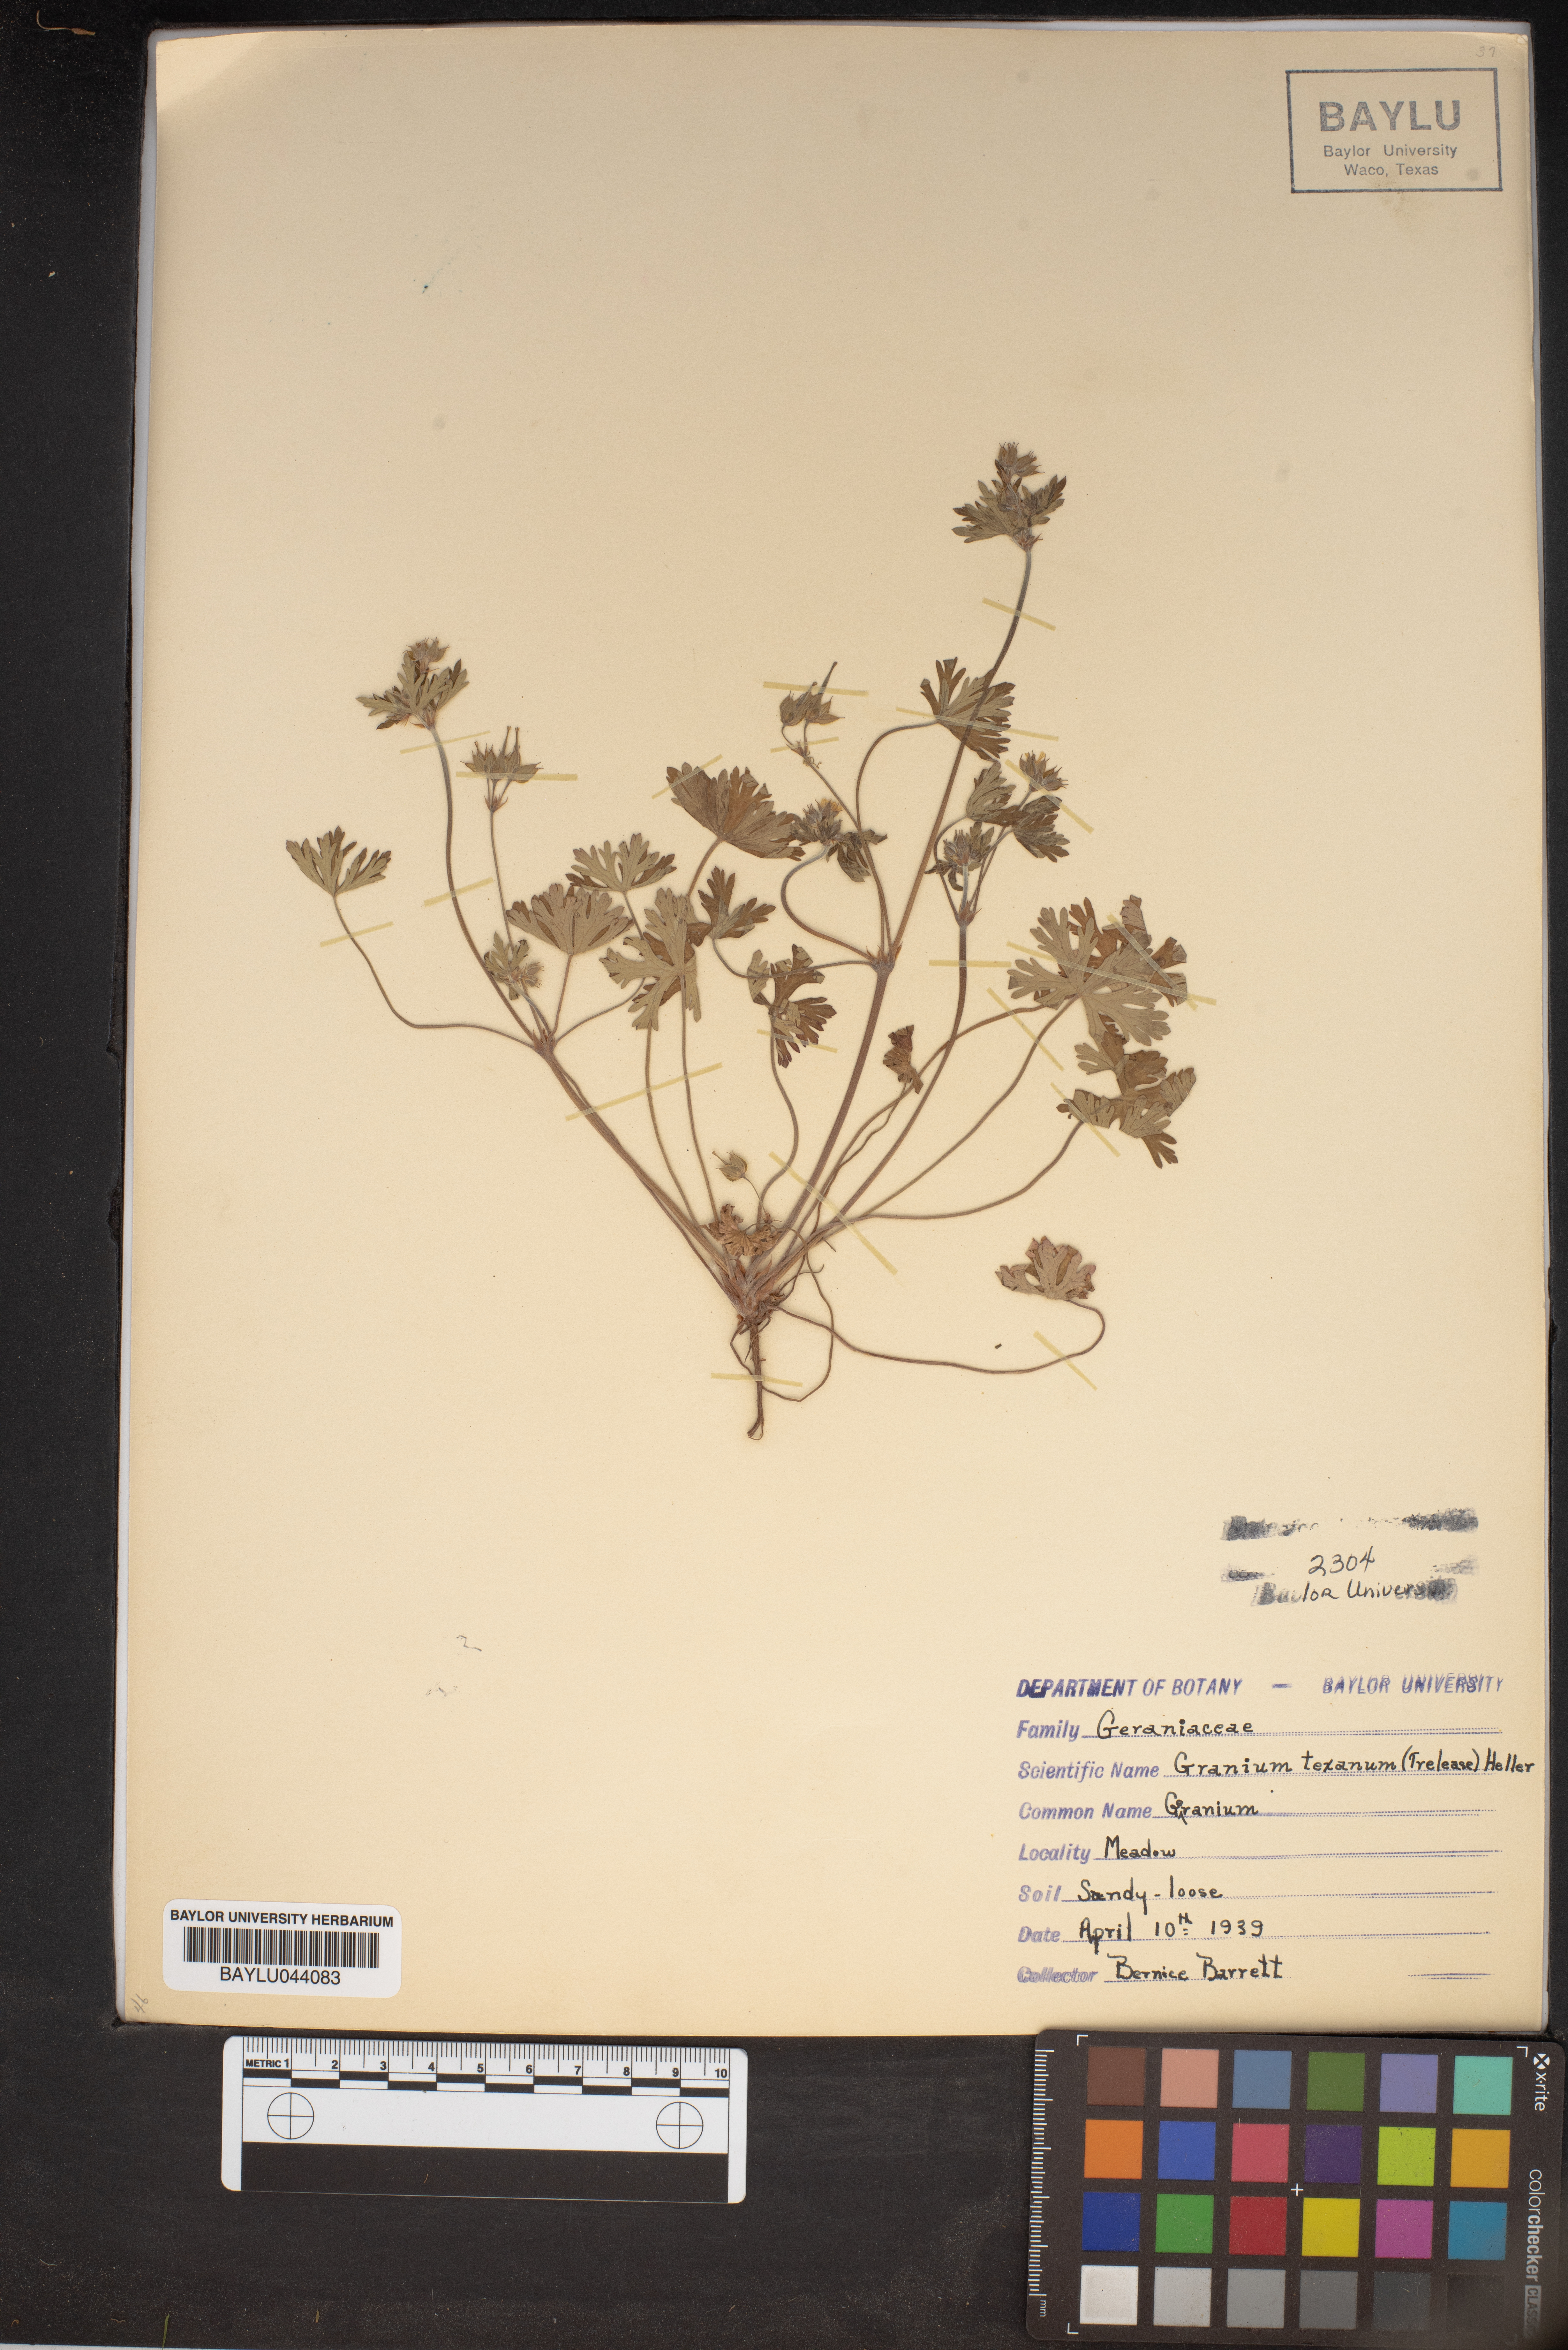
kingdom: Plantae
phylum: Tracheophyta
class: Magnoliopsida
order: Geraniales
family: Geraniaceae
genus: Geranium
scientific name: Geranium texanum
